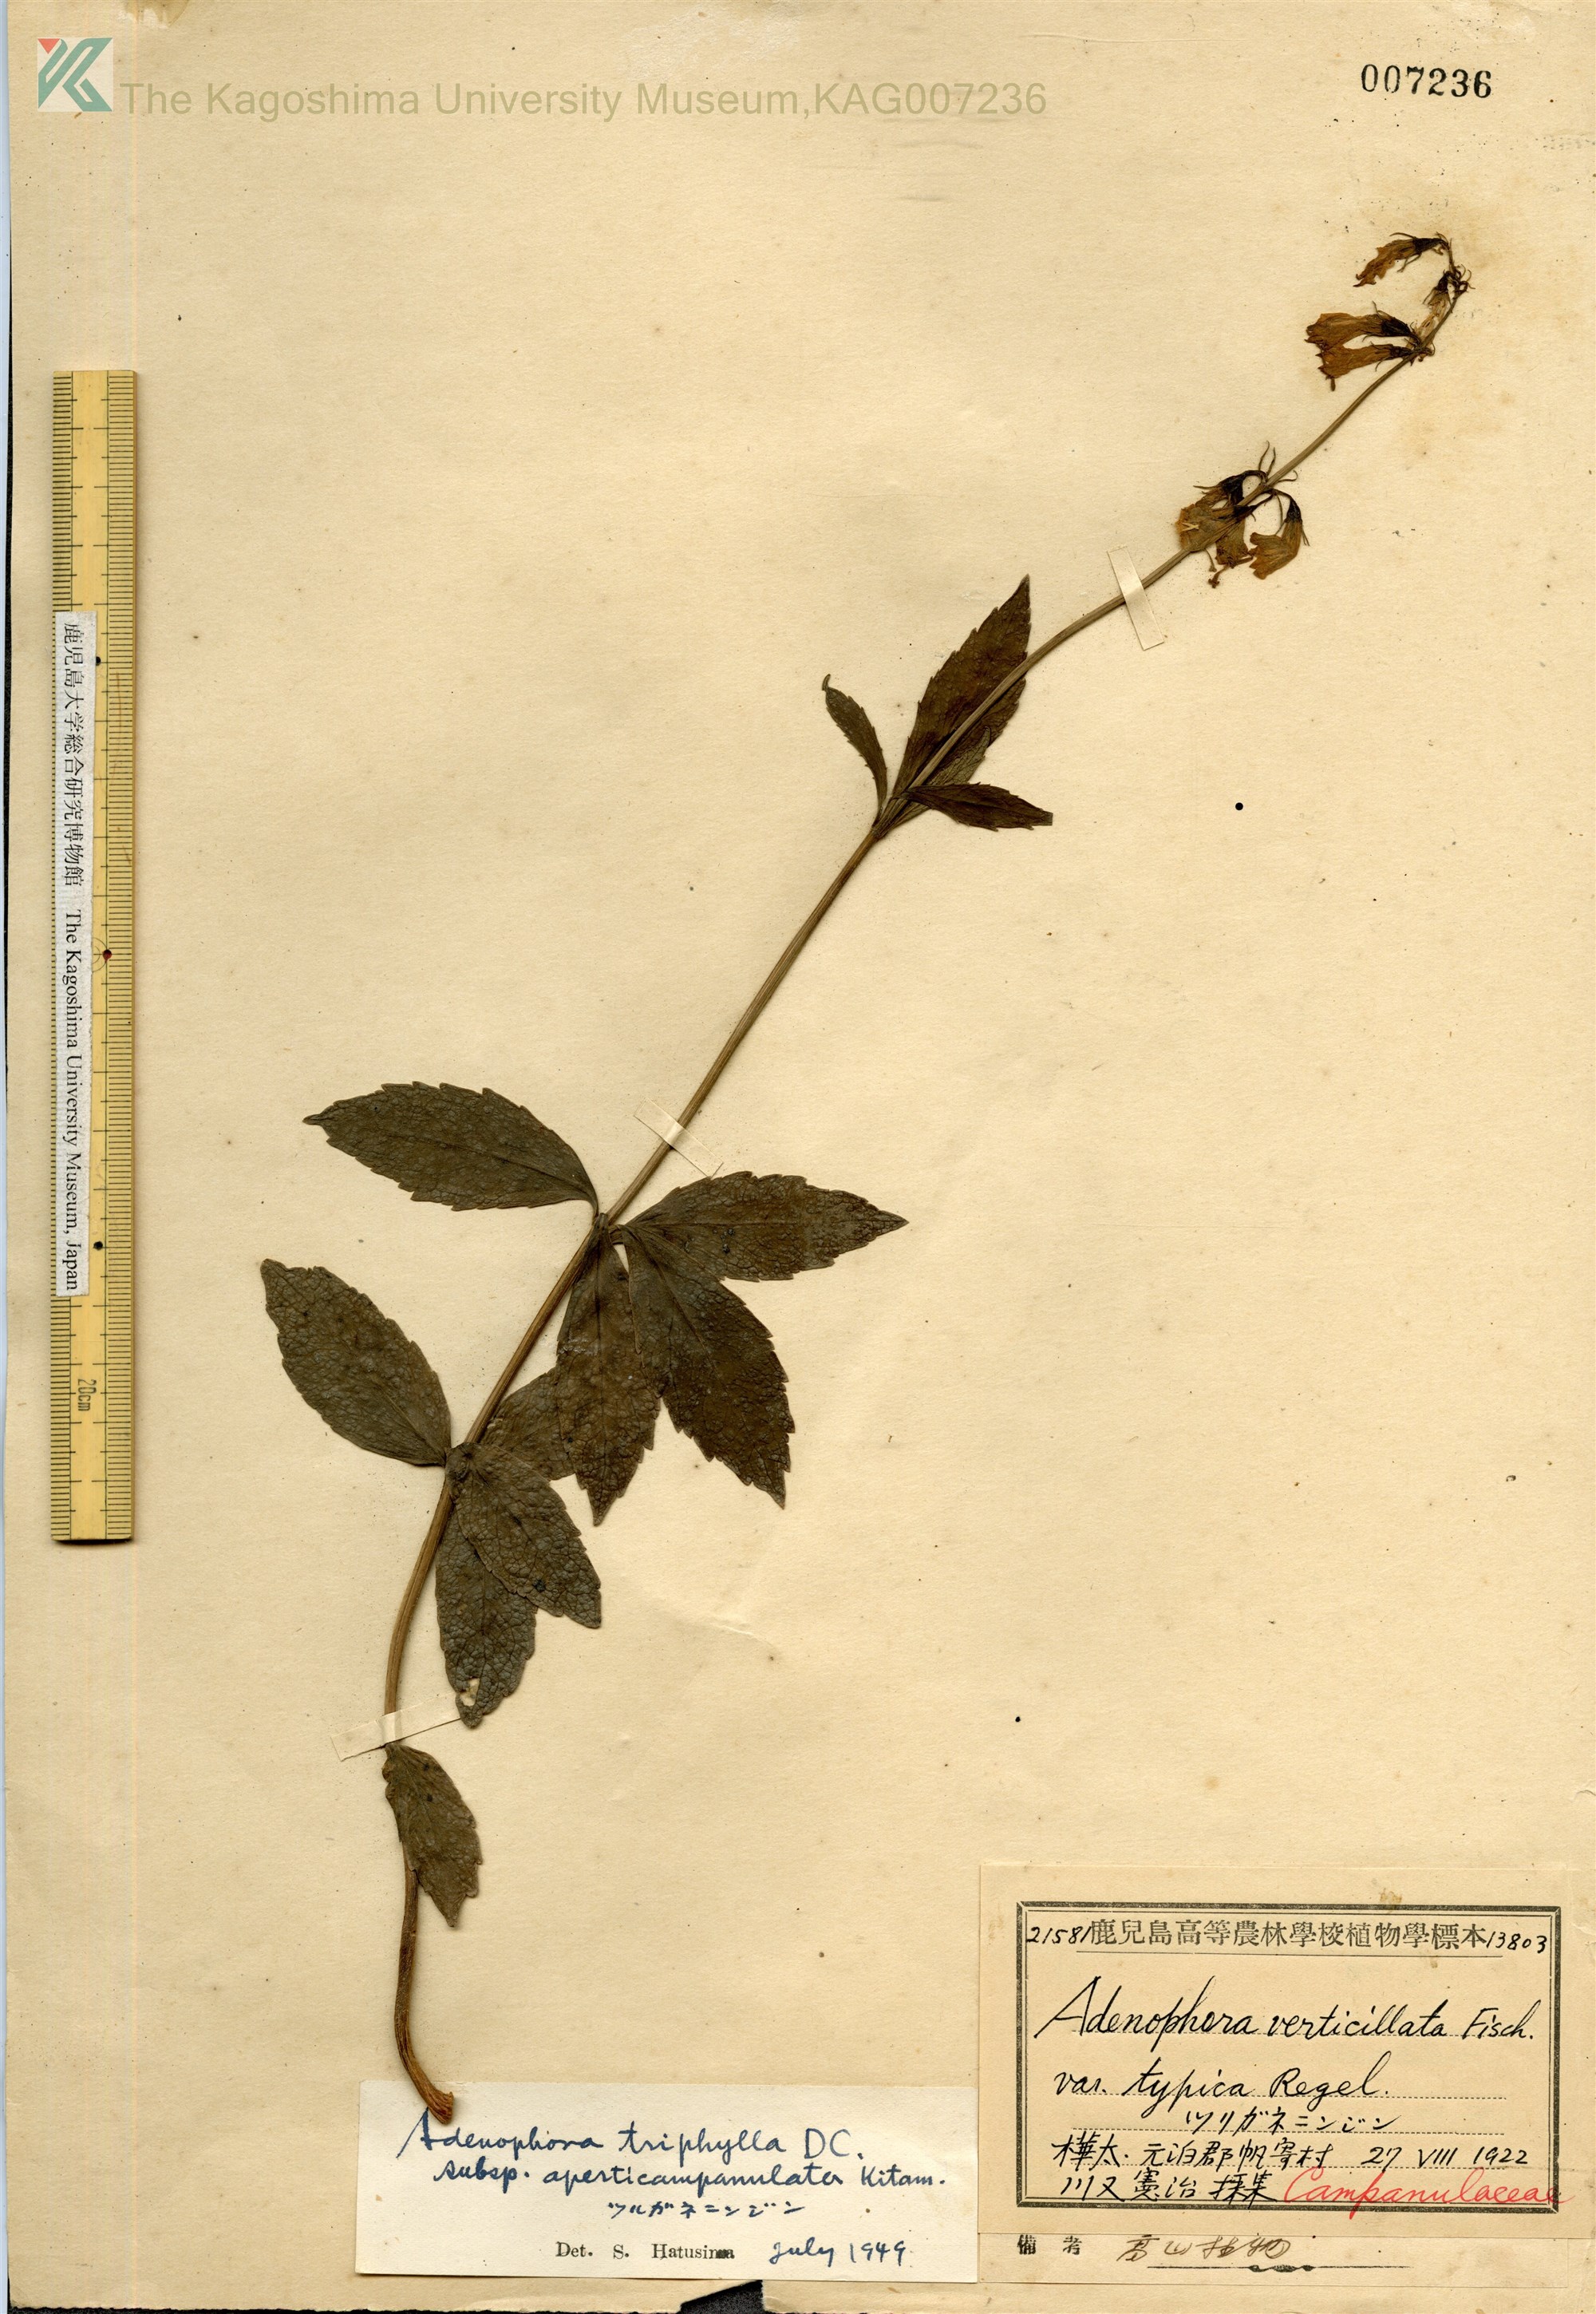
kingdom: Plantae
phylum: Tracheophyta
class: Magnoliopsida
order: Asterales
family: Campanulaceae
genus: Adenophora
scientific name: Adenophora triphylla
